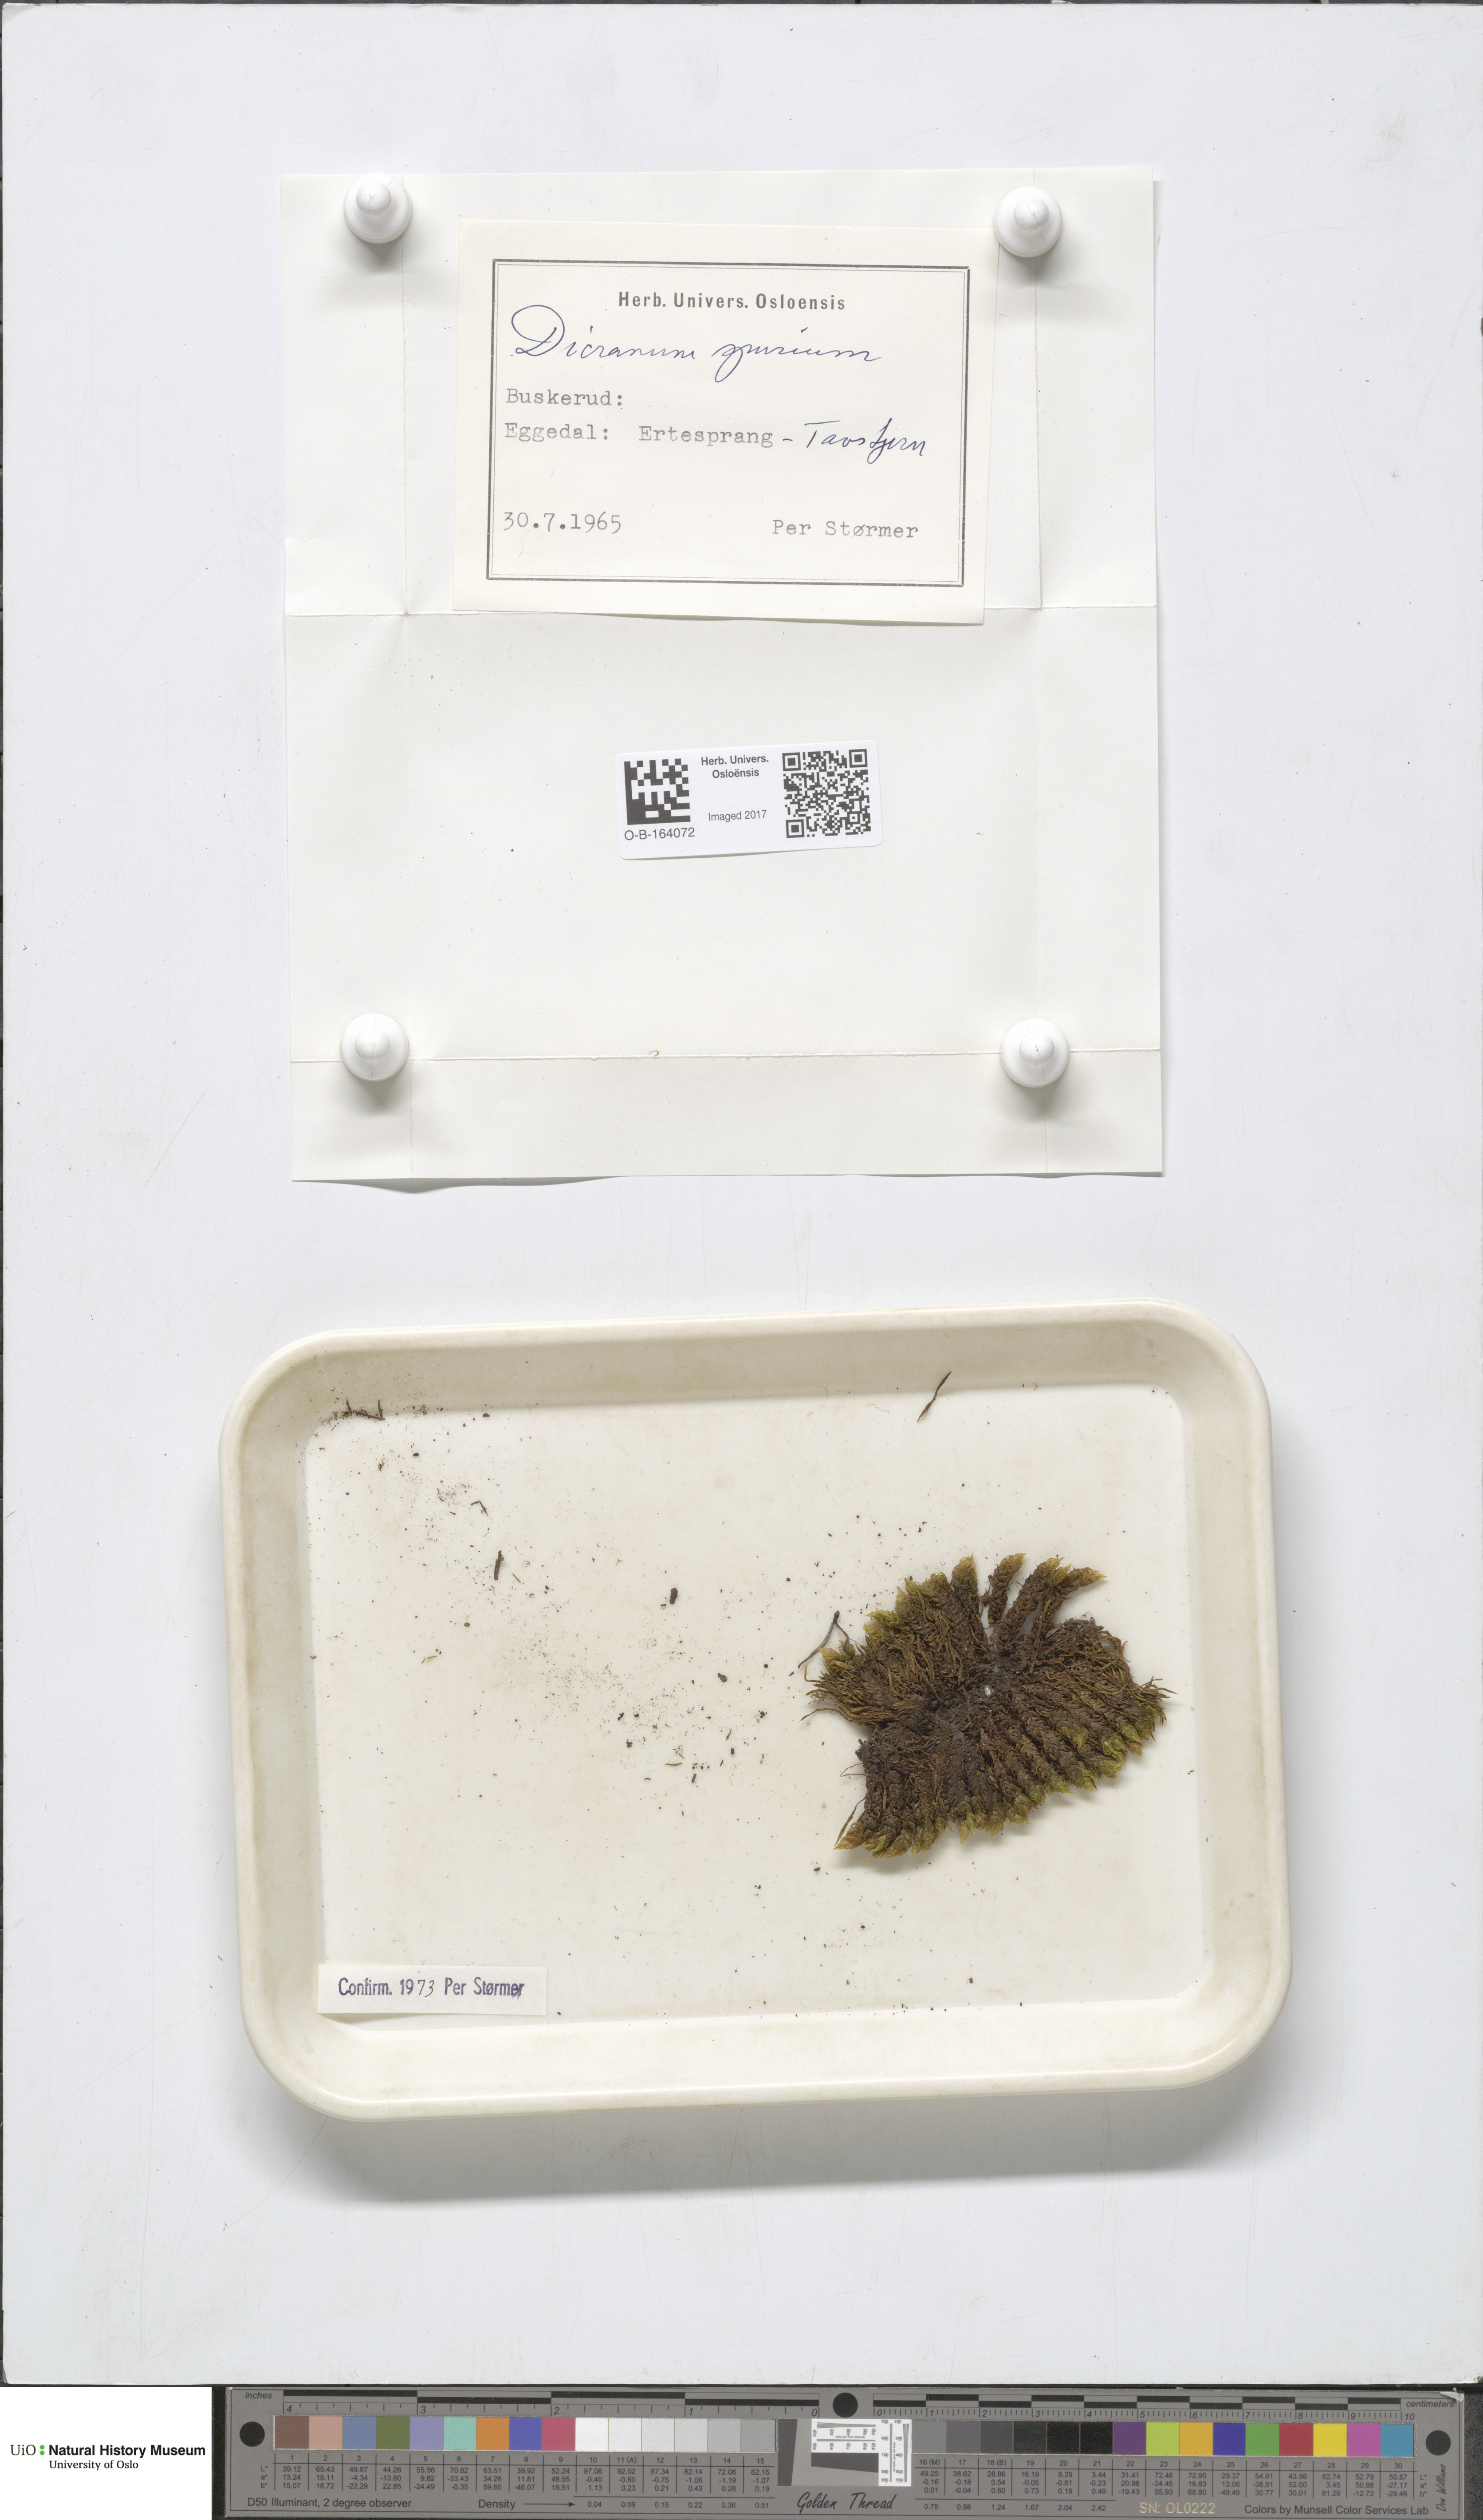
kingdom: Plantae
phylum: Bryophyta
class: Bryopsida
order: Dicranales
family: Dicranaceae
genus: Dicranum
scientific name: Dicranum spurium
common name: Spurred broom moss
